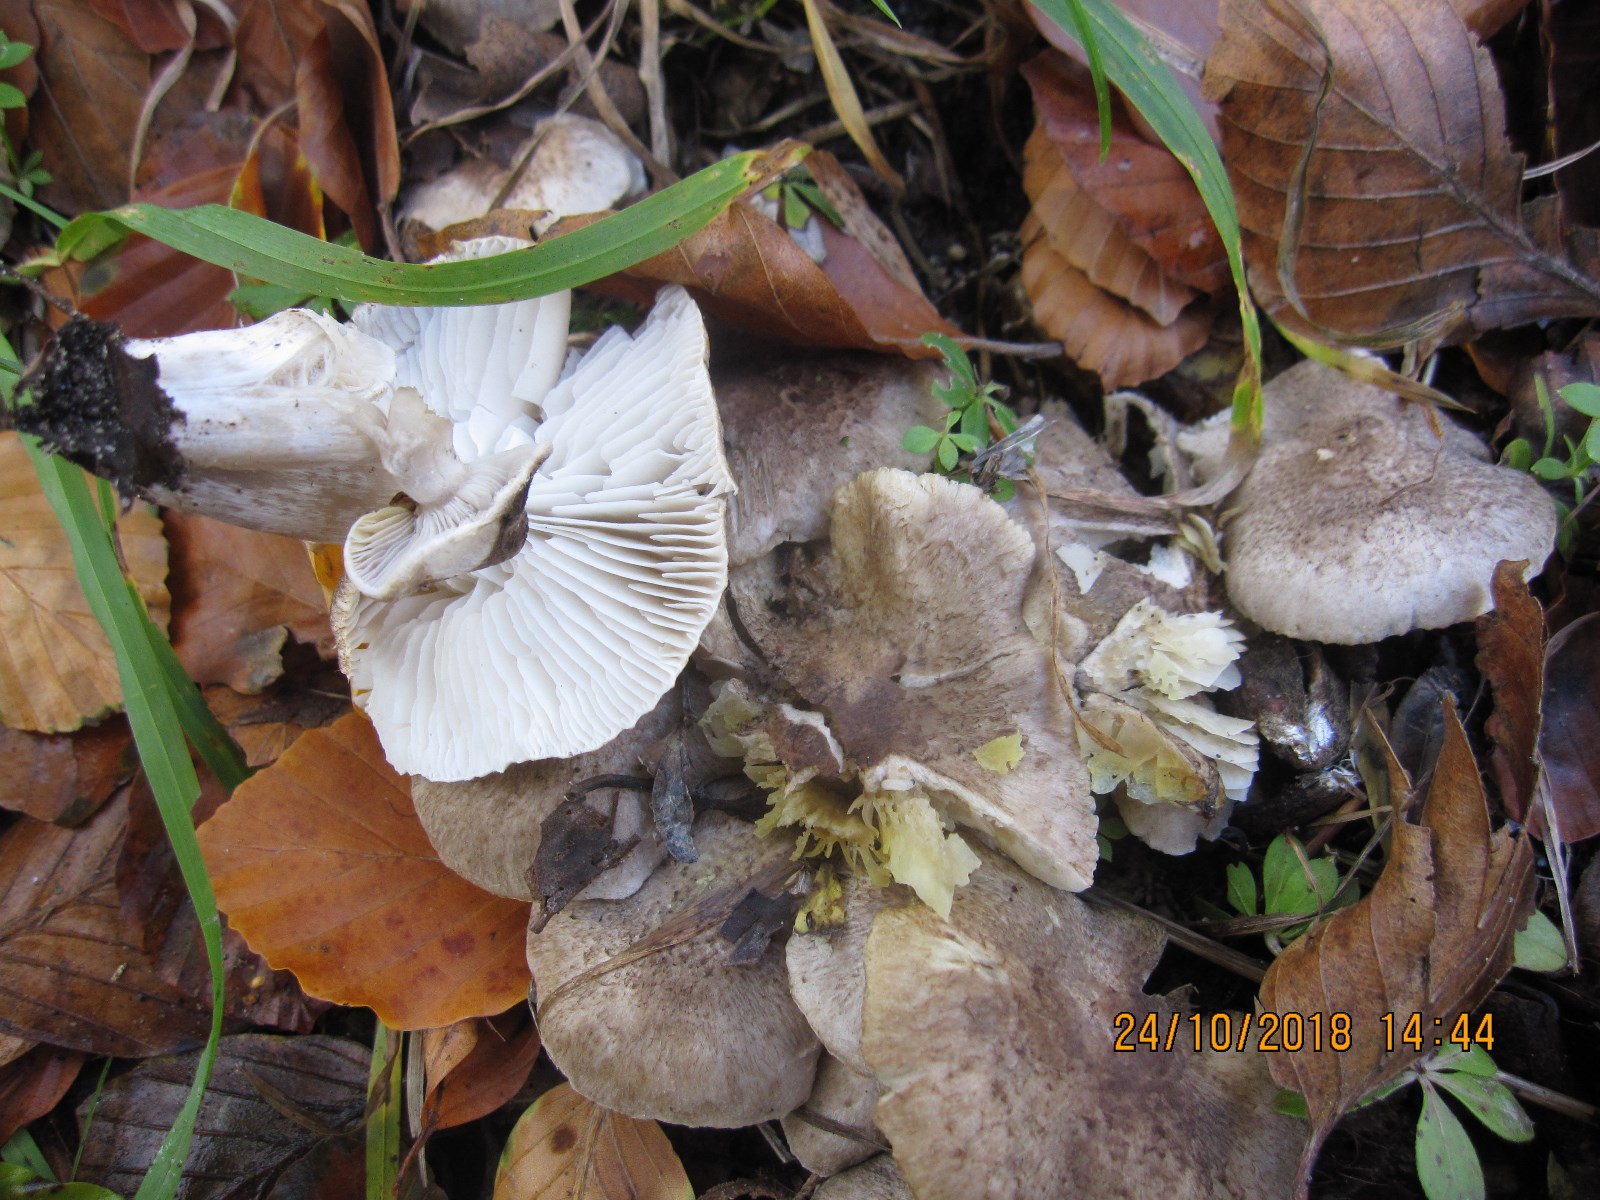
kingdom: Fungi
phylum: Basidiomycota
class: Agaricomycetes
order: Agaricales
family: Tricholomataceae
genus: Tricholoma
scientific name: Tricholoma scalpturatum
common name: gulplettet ridderhat
